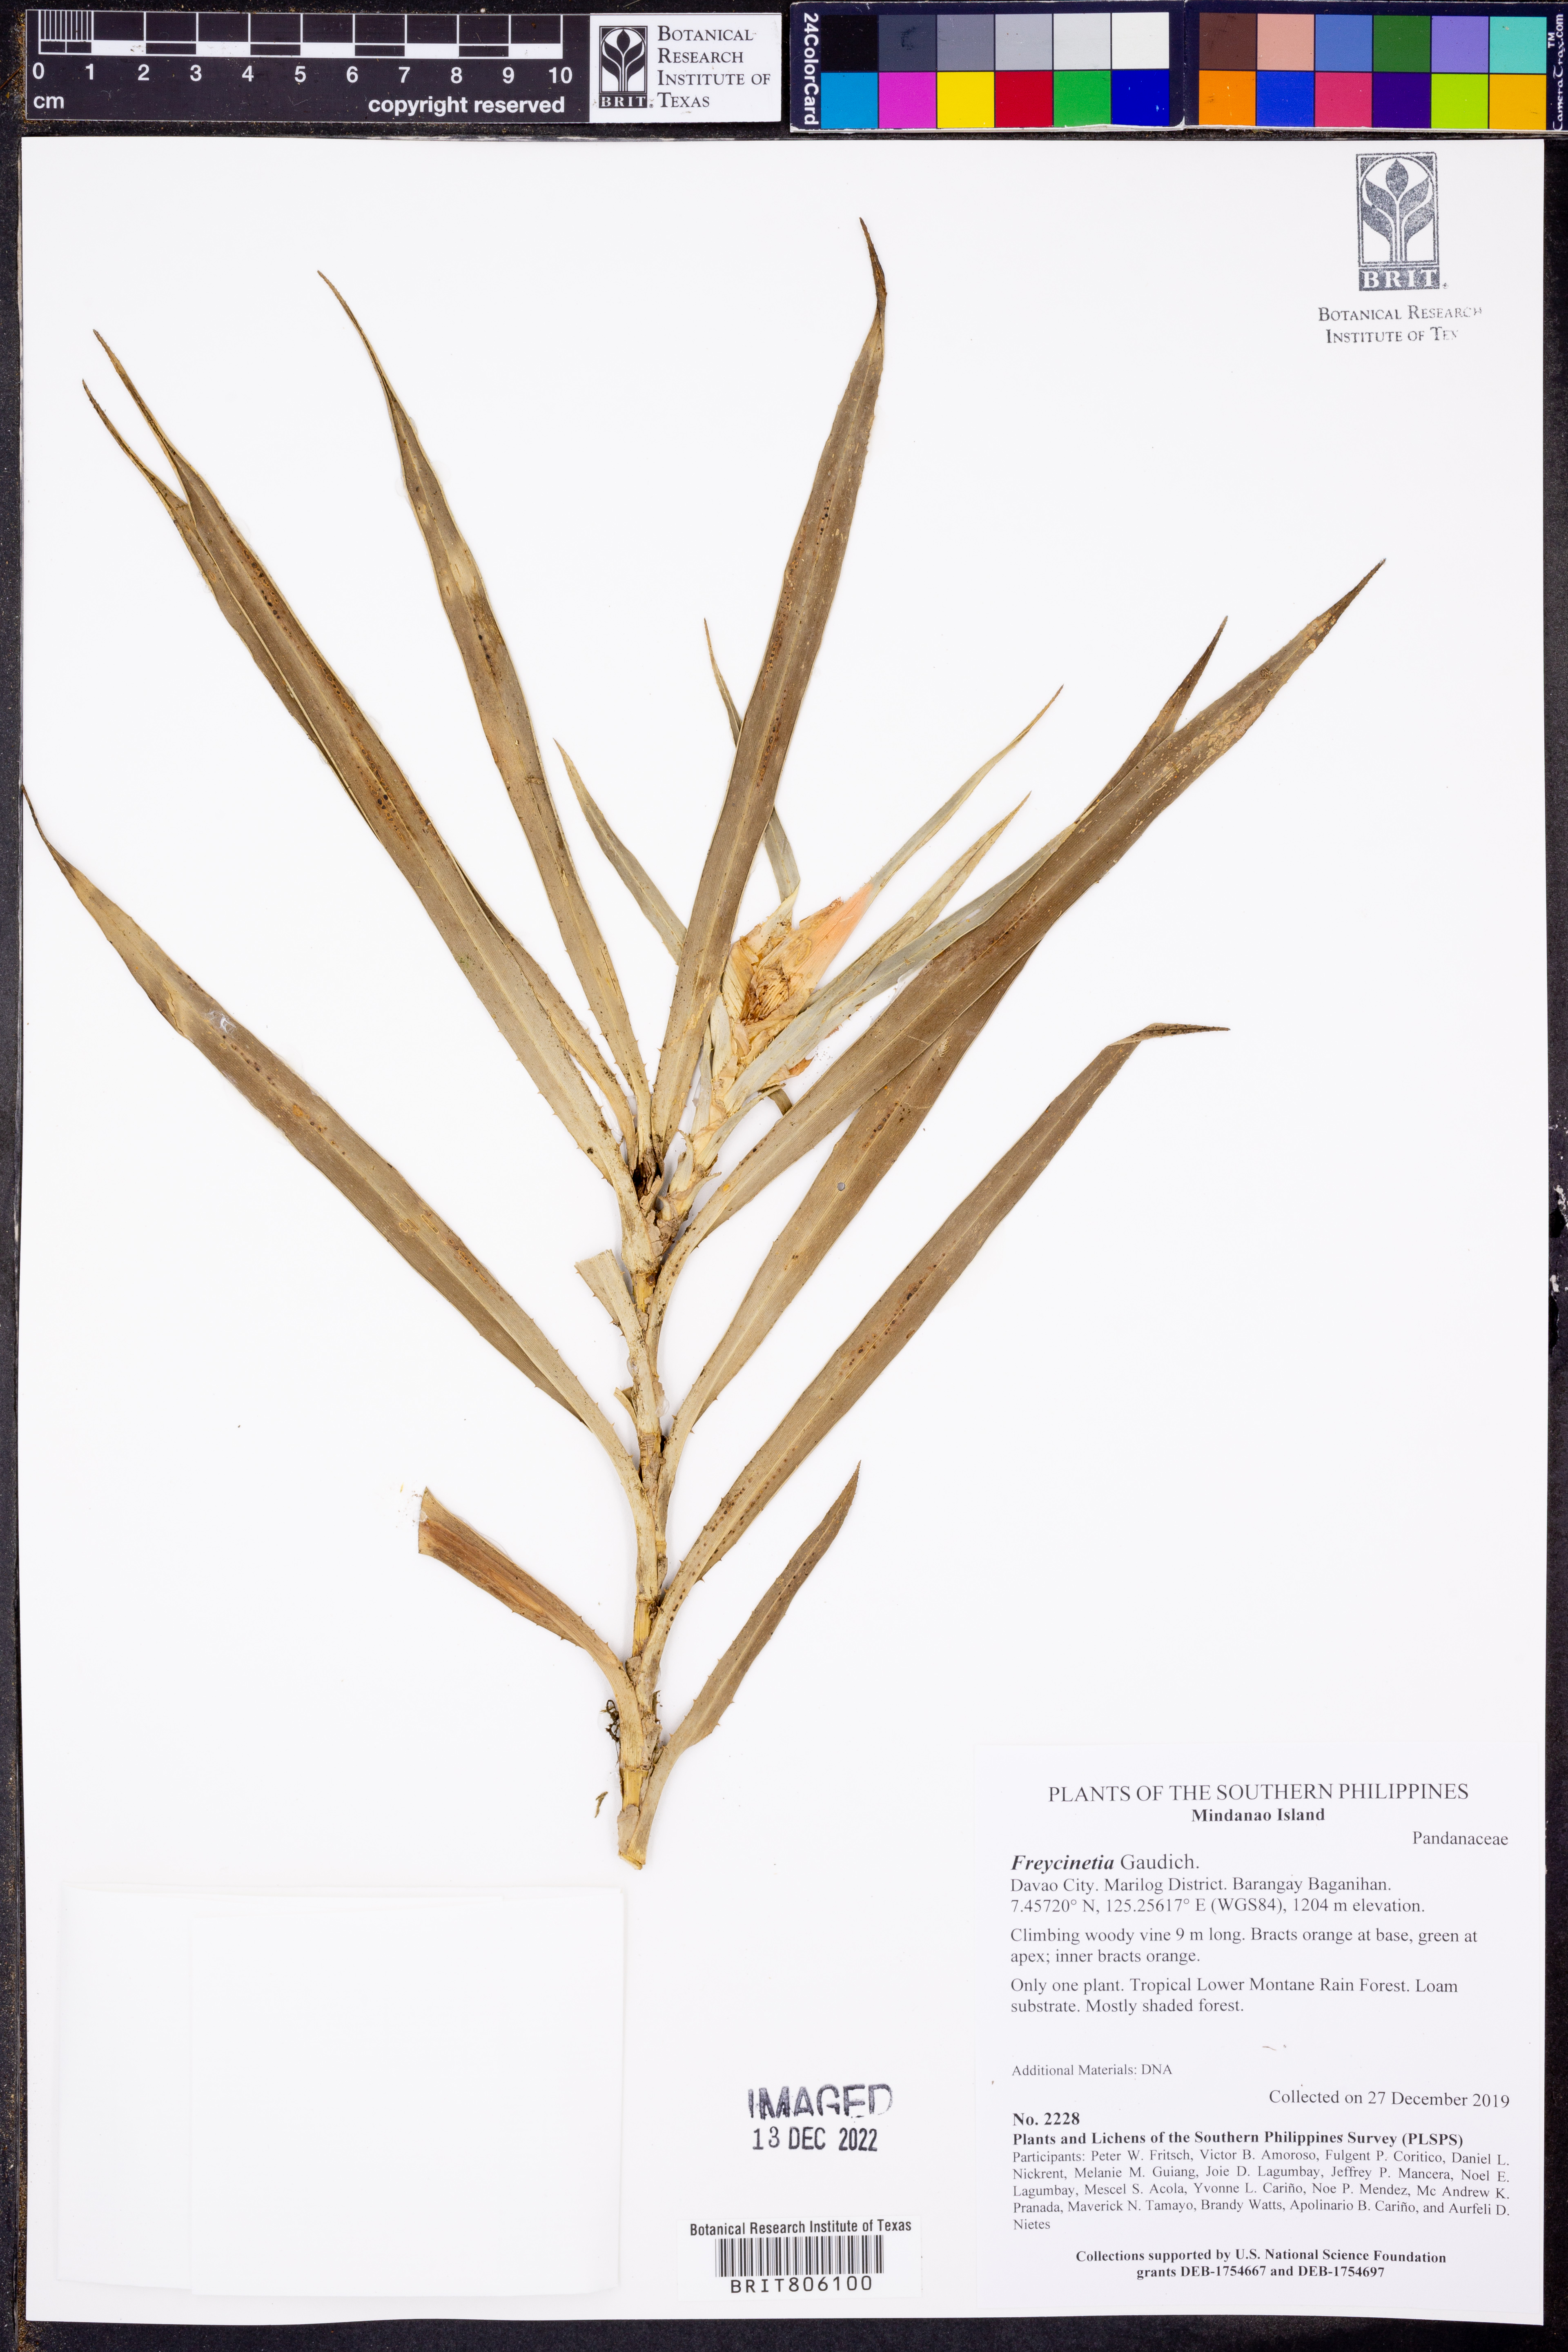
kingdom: Plantae
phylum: Tracheophyta
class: Liliopsida
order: Pandanales
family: Pandanaceae
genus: Freycinetia
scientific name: Freycinetia
